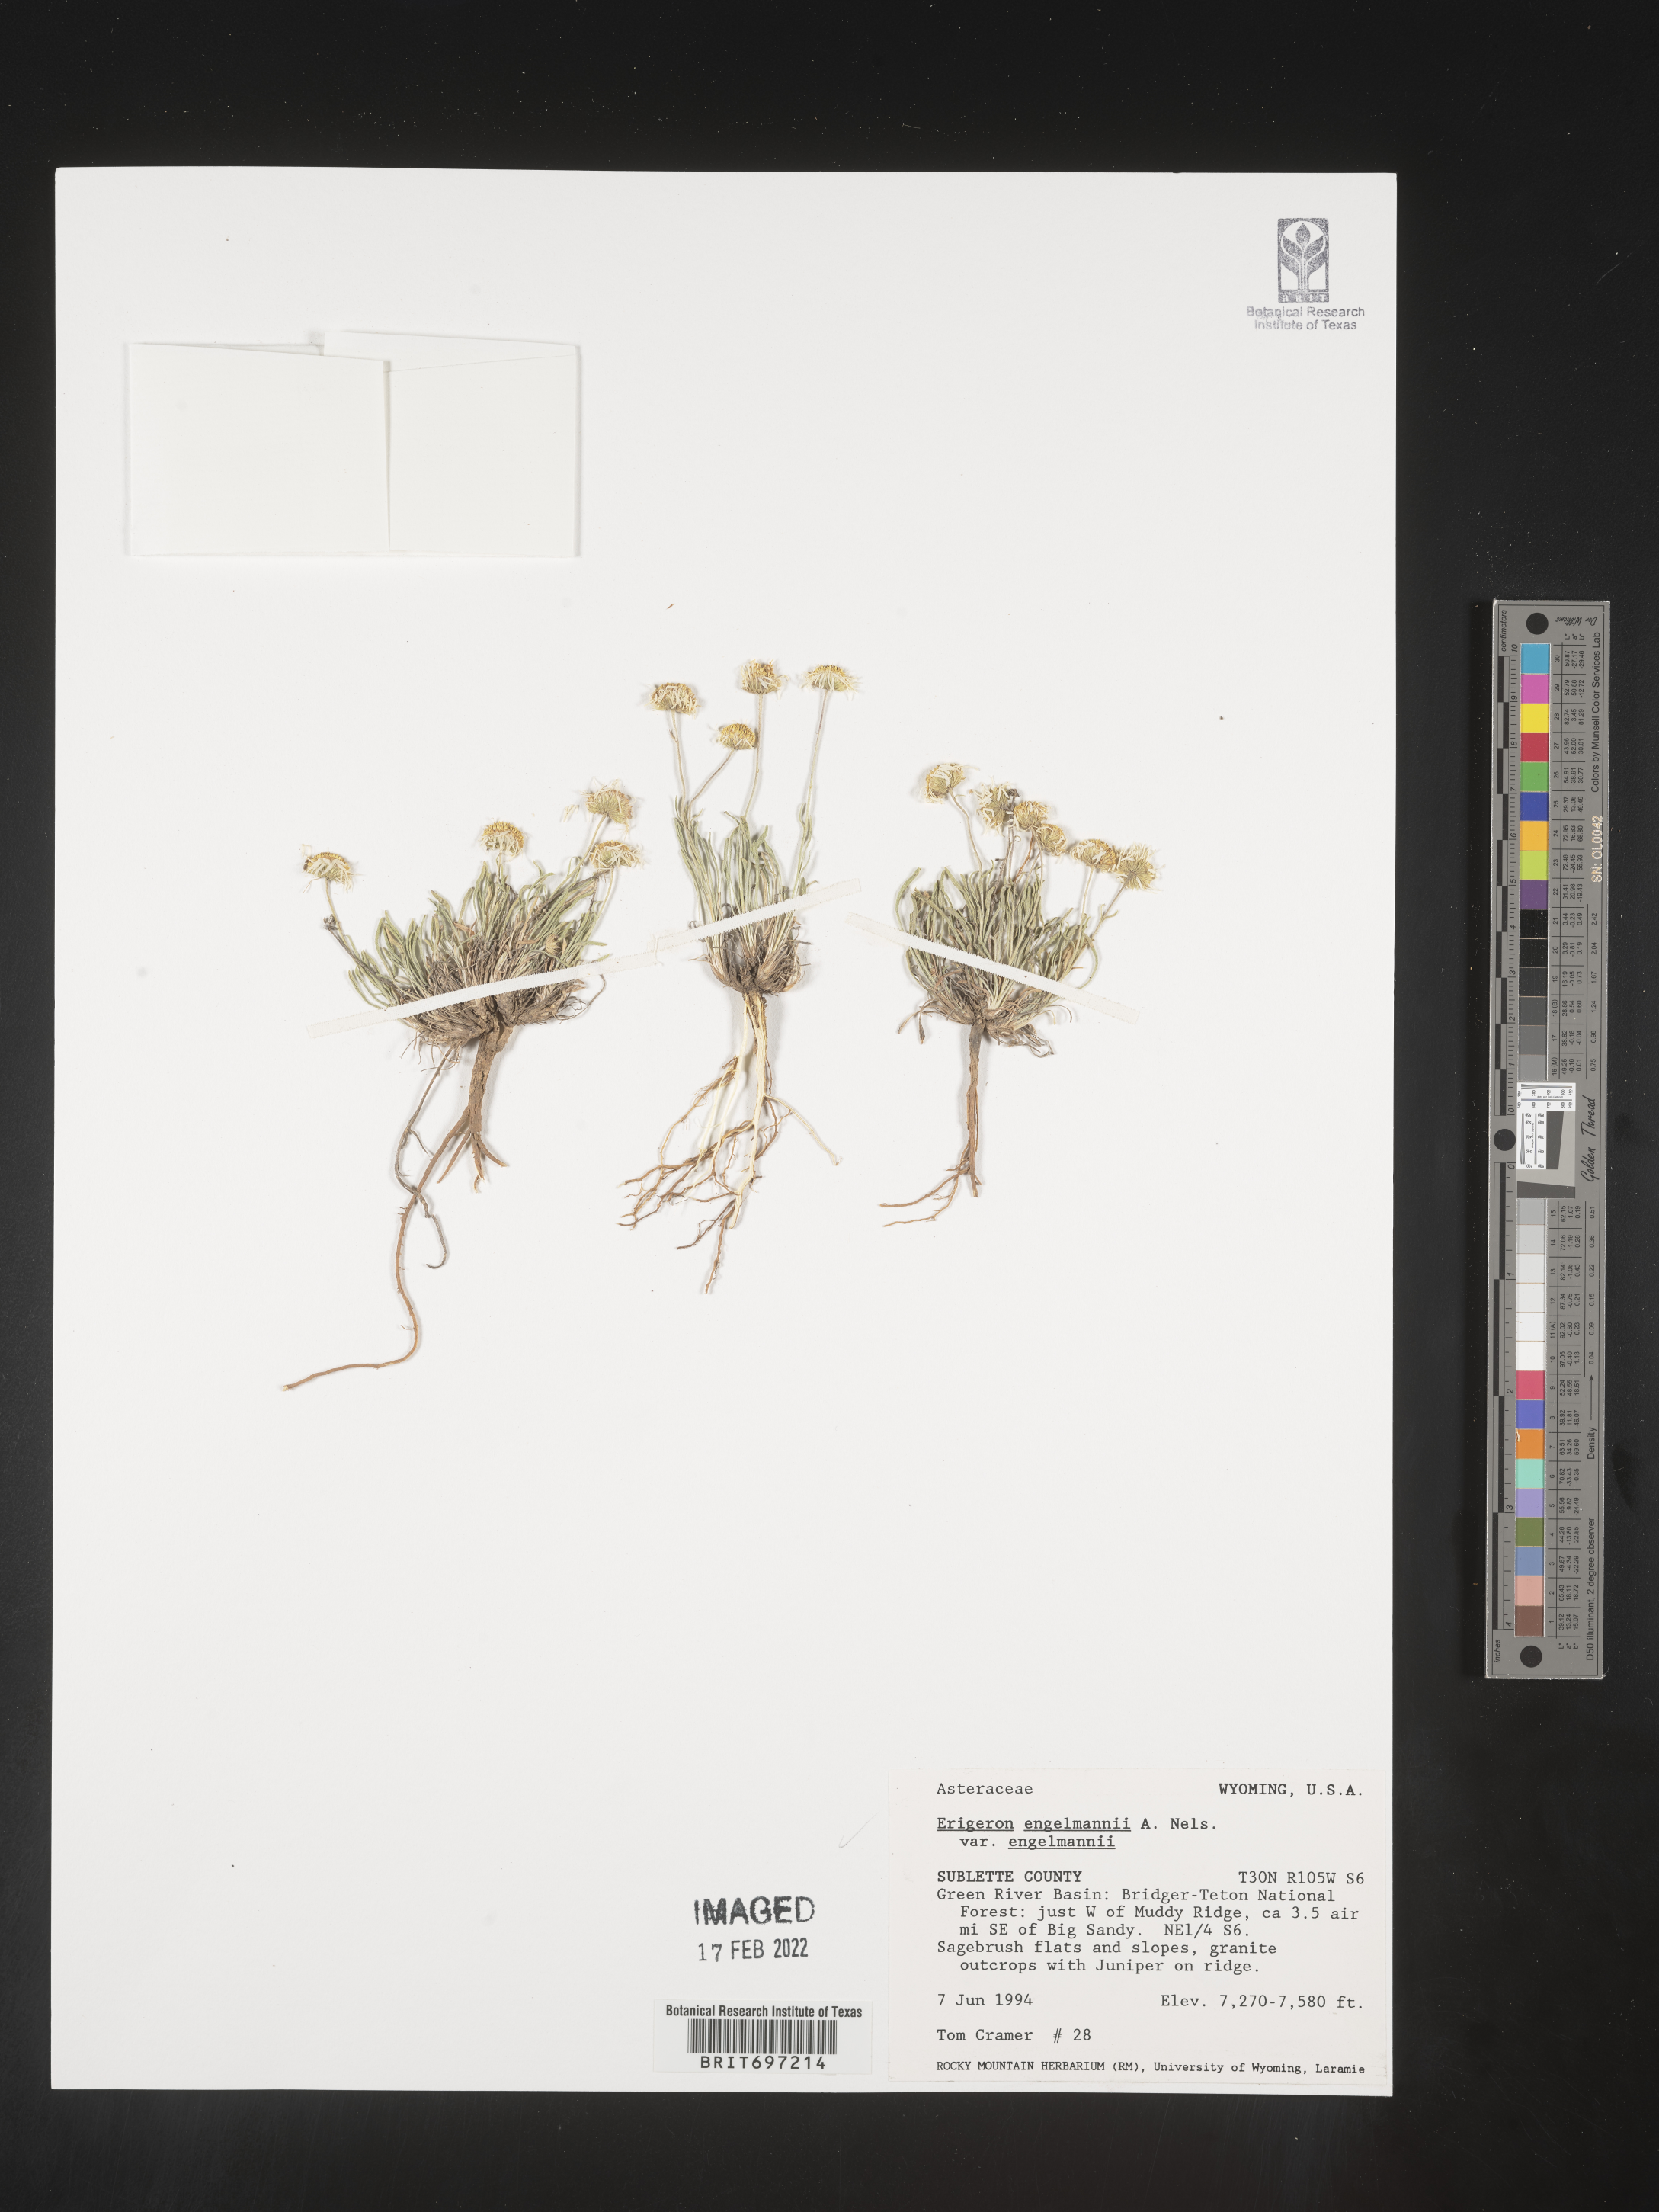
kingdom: Plantae
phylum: Tracheophyta
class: Magnoliopsida
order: Asterales
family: Asteraceae
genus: Erigeron
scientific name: Erigeron engelmannii
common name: Engelmann's fleabane
